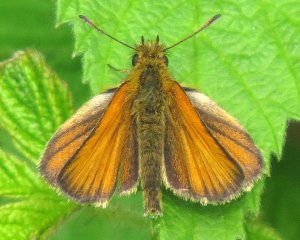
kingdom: Animalia
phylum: Arthropoda
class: Insecta
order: Lepidoptera
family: Hesperiidae
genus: Thymelicus
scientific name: Thymelicus lineola
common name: European Skipper
